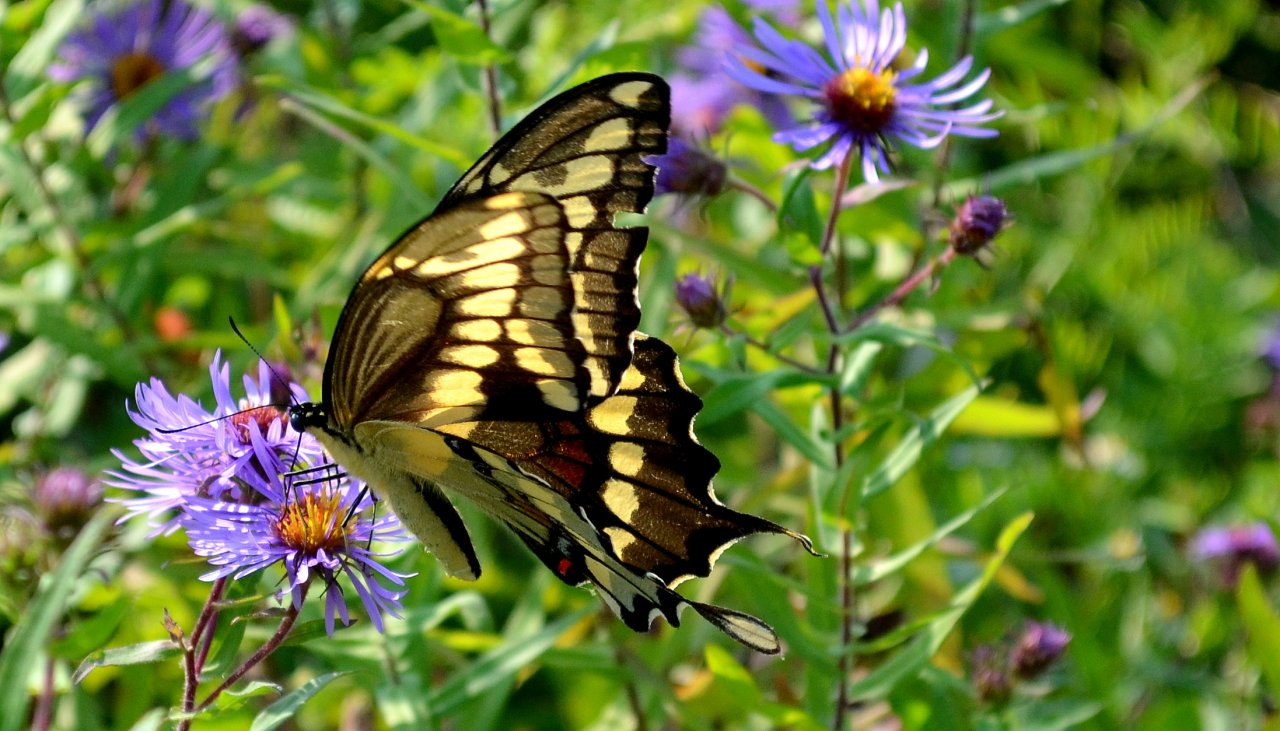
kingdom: Animalia
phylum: Arthropoda
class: Insecta
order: Lepidoptera
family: Papilionidae
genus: Papilio
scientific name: Papilio cresphontes
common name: Eastern Giant Swallowtail
